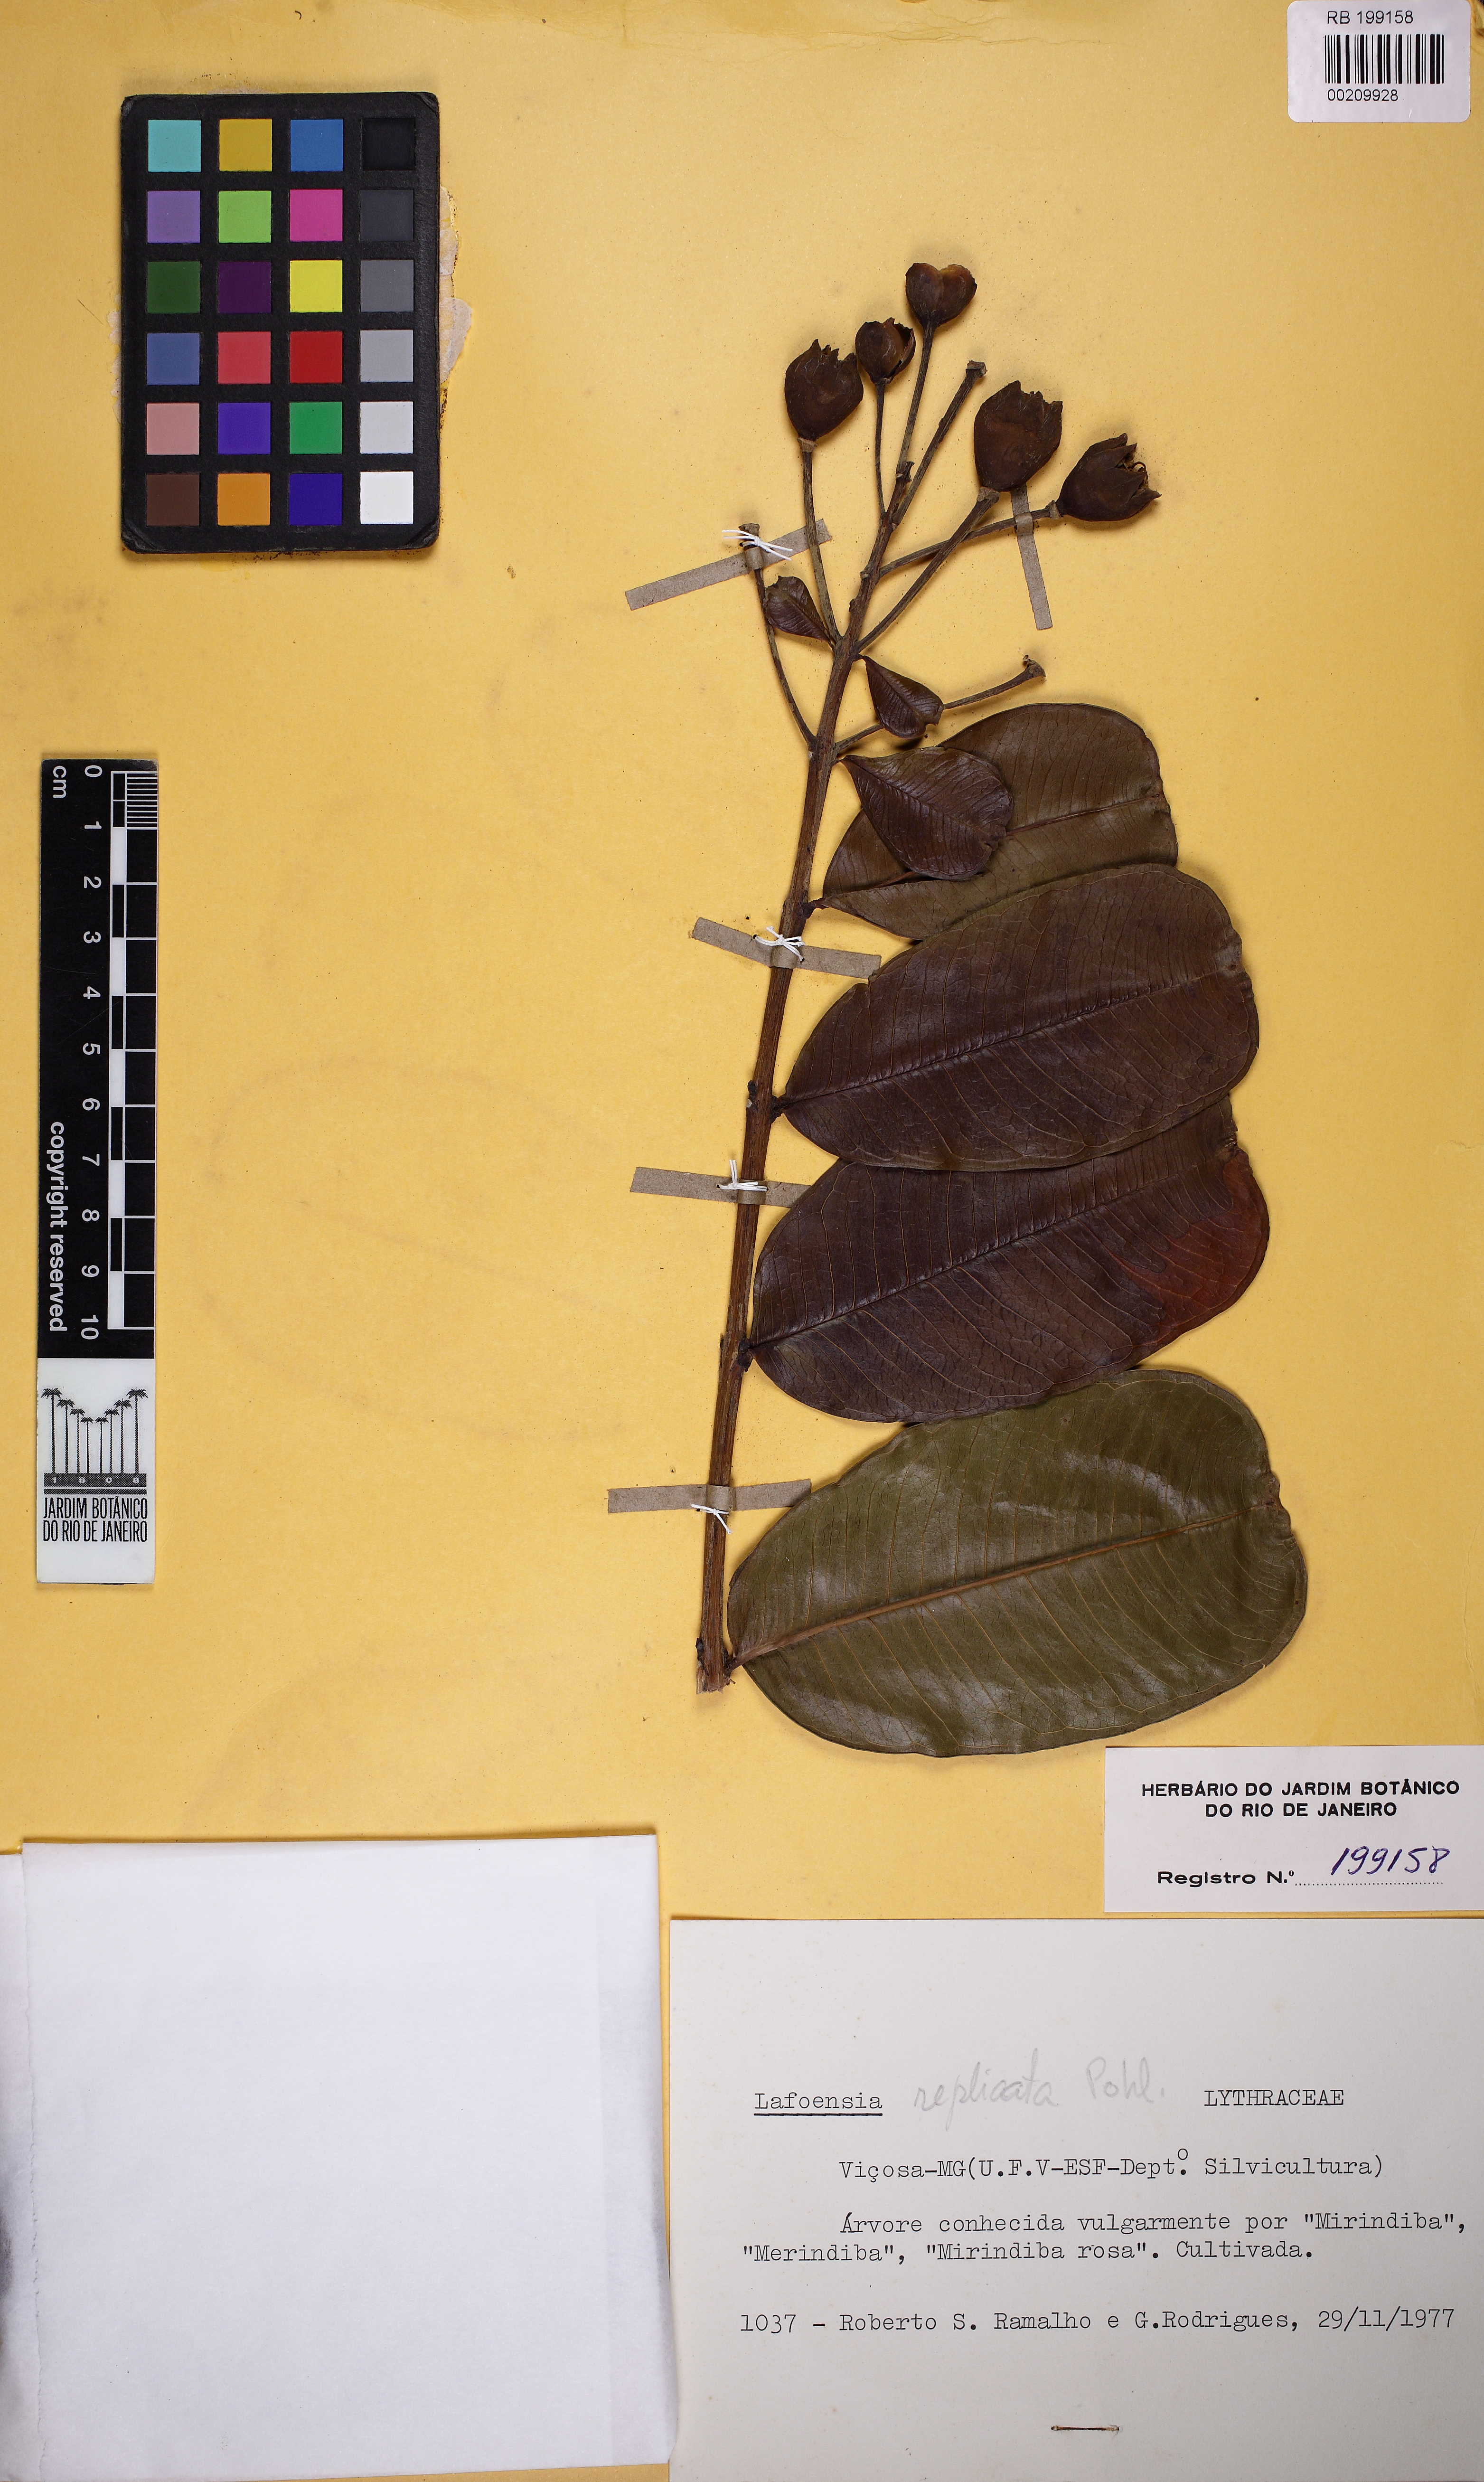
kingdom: Plantae
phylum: Tracheophyta
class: Magnoliopsida
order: Myrtales
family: Lythraceae
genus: Lafoensia
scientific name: Lafoensia vandelliana
